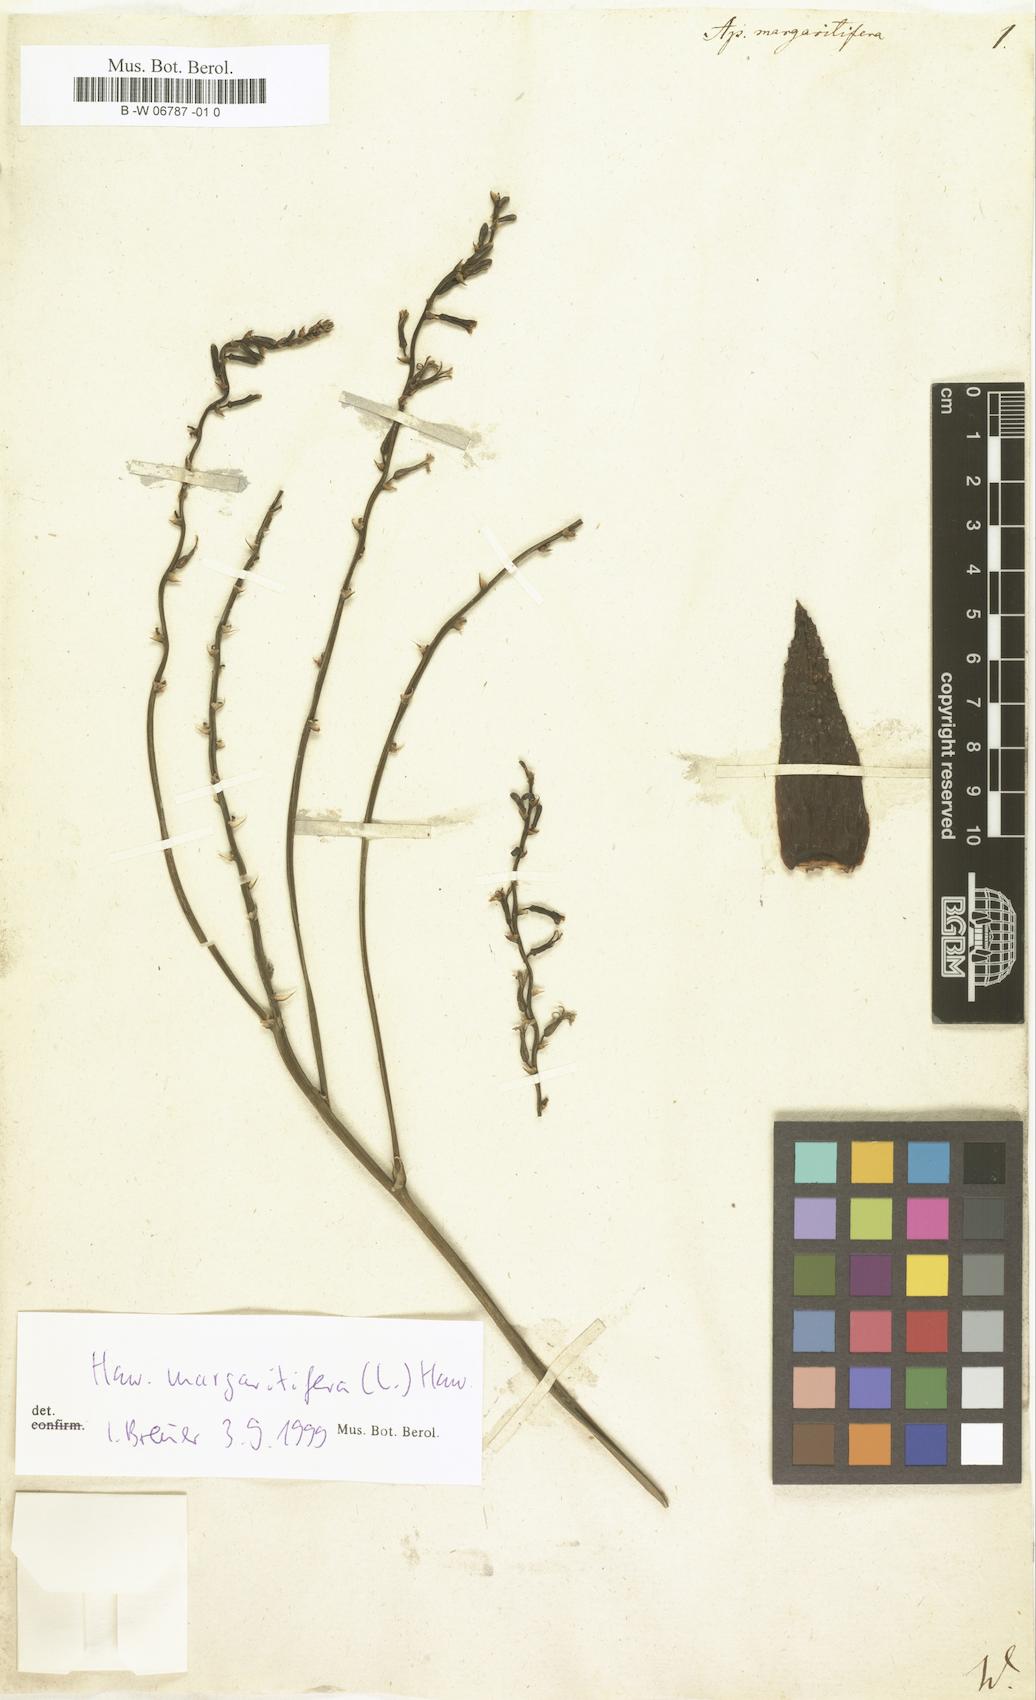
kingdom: Plantae
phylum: Tracheophyta
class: Liliopsida
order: Asparagales
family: Asphodelaceae
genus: Tulista
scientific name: Tulista pumila
